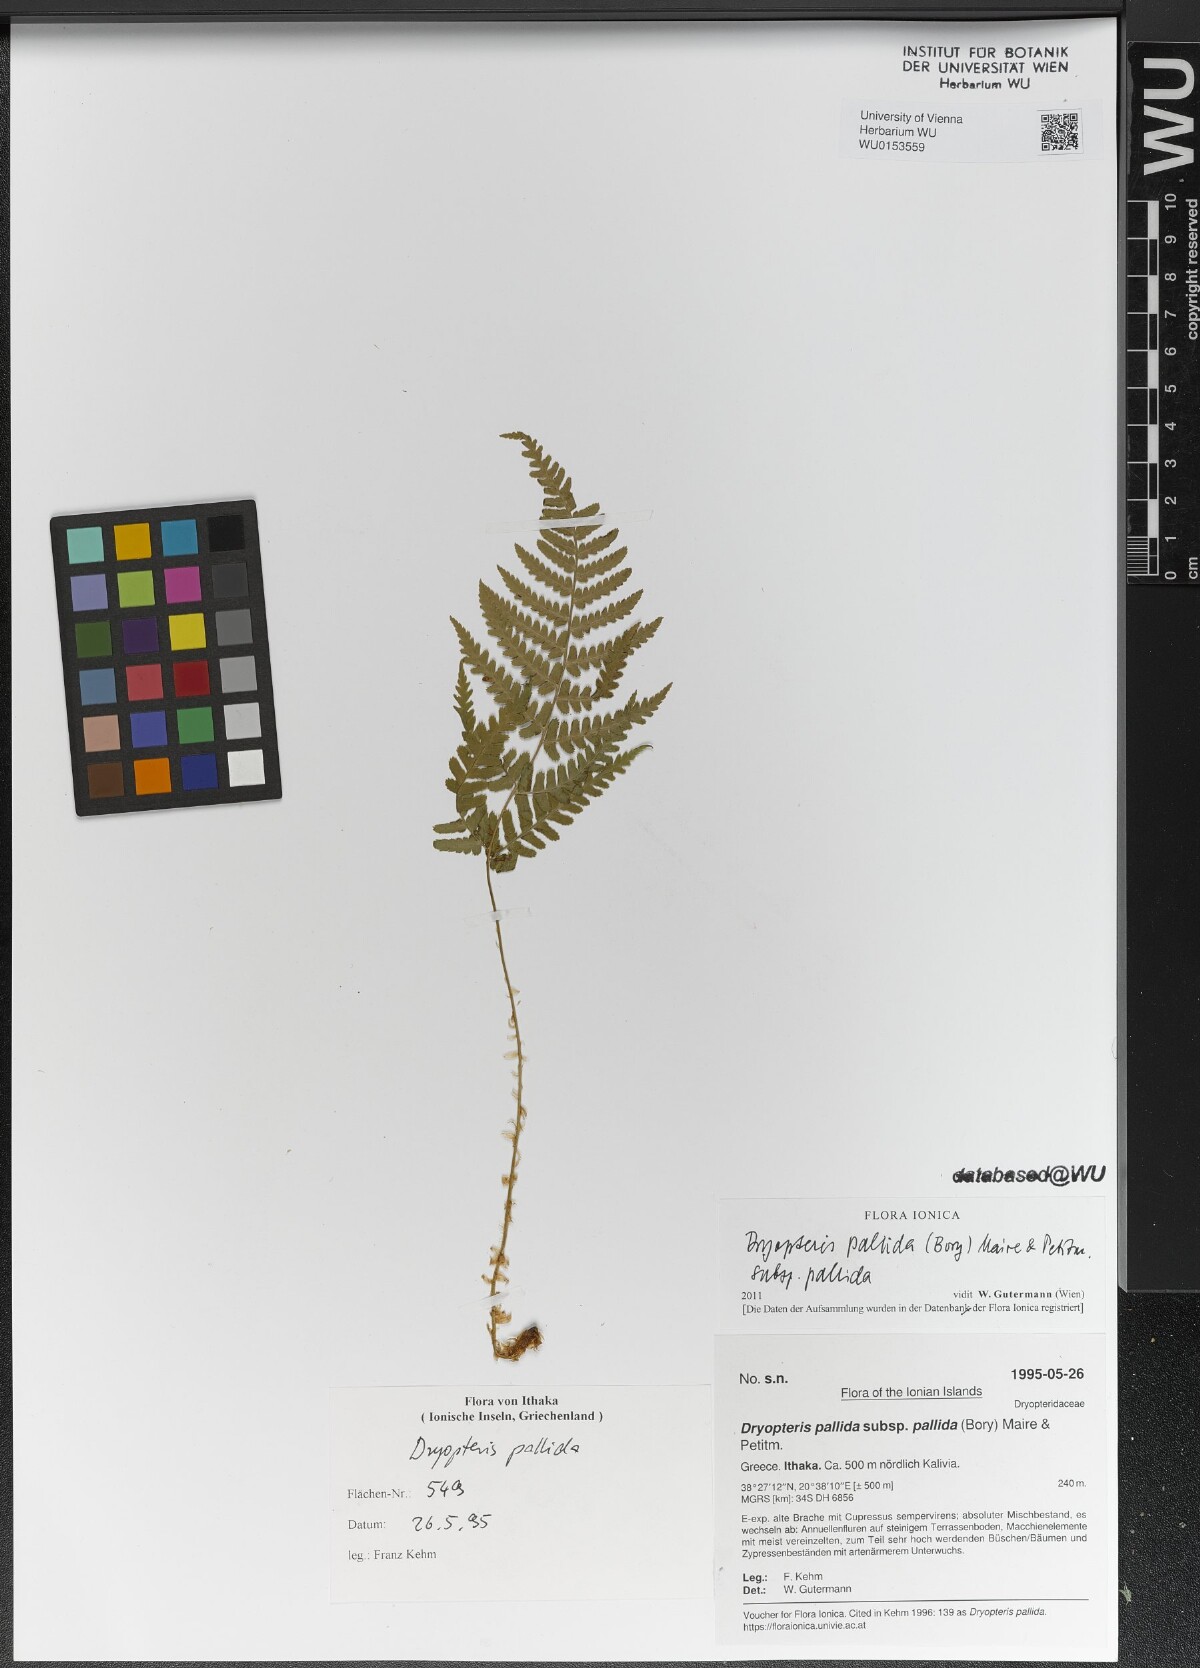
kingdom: Plantae
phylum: Tracheophyta
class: Polypodiopsida
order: Polypodiales
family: Dryopteridaceae
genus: Dryopteris
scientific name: Dryopteris pallida
